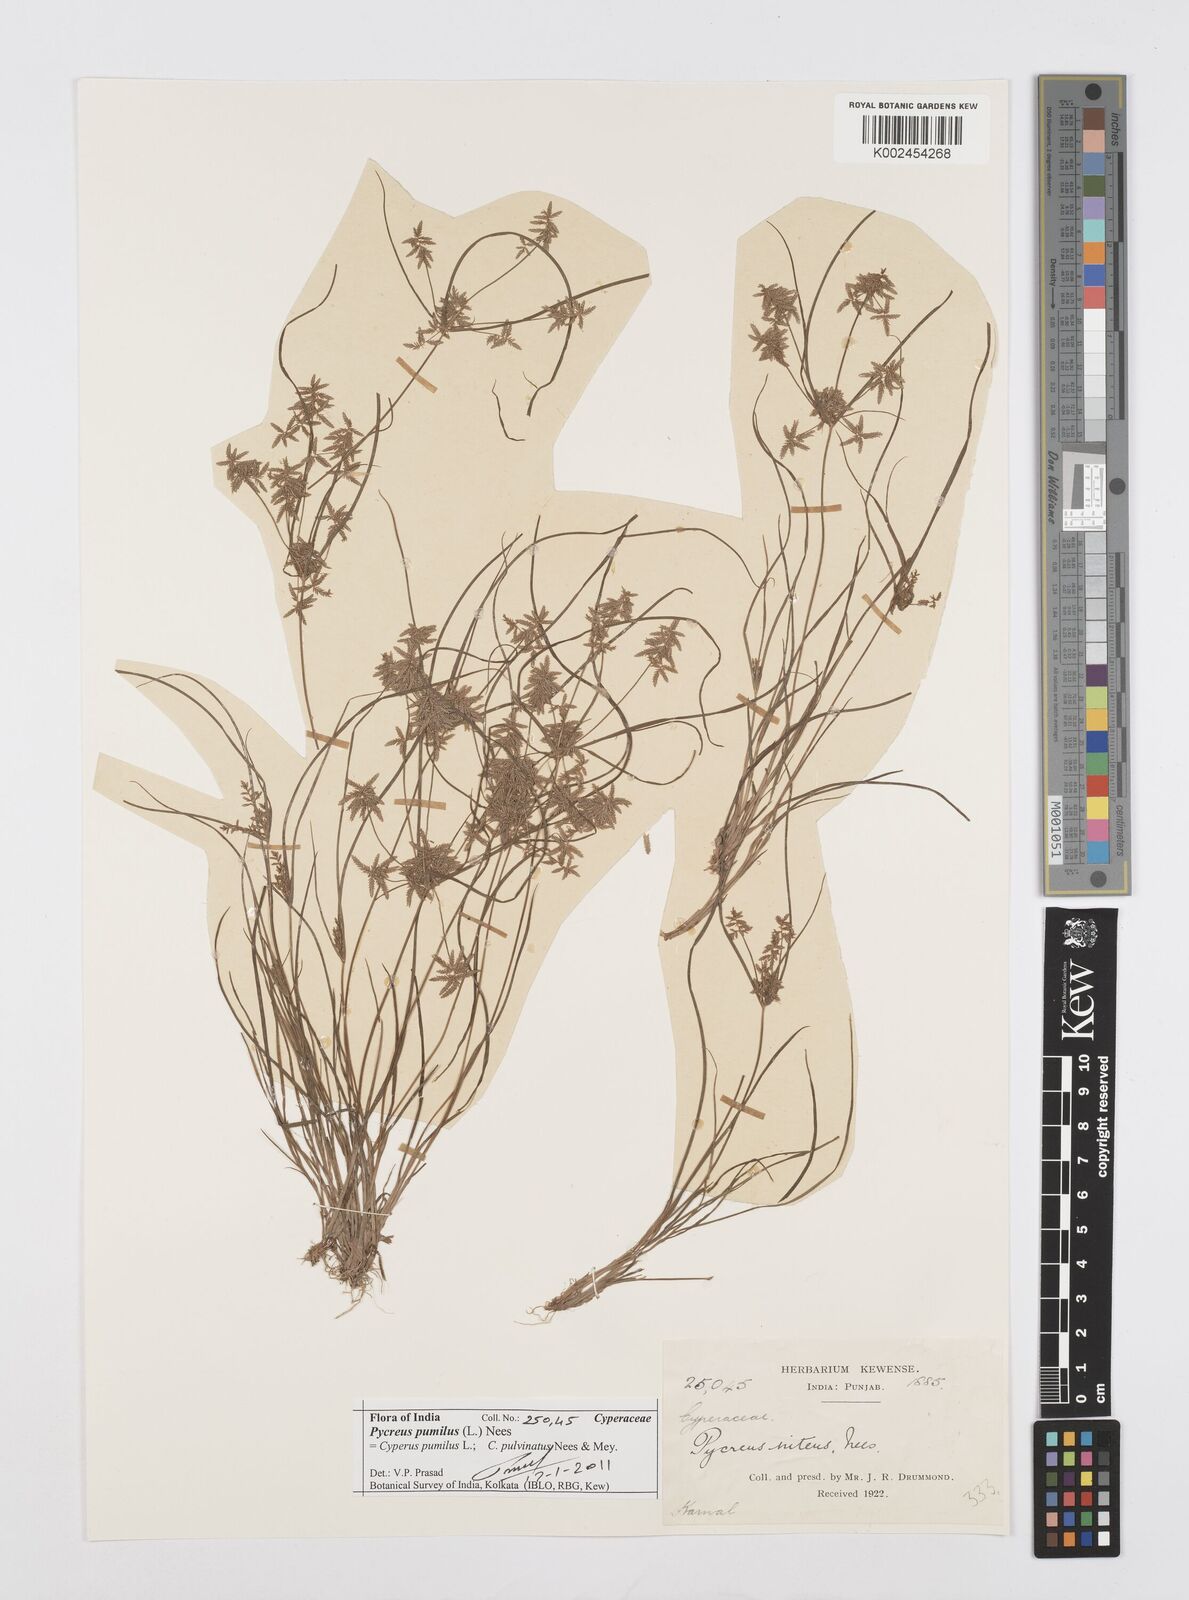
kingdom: Plantae
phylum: Tracheophyta
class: Liliopsida
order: Poales
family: Cyperaceae
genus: Cyperus
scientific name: Cyperus pumilus
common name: Low flatsedge
